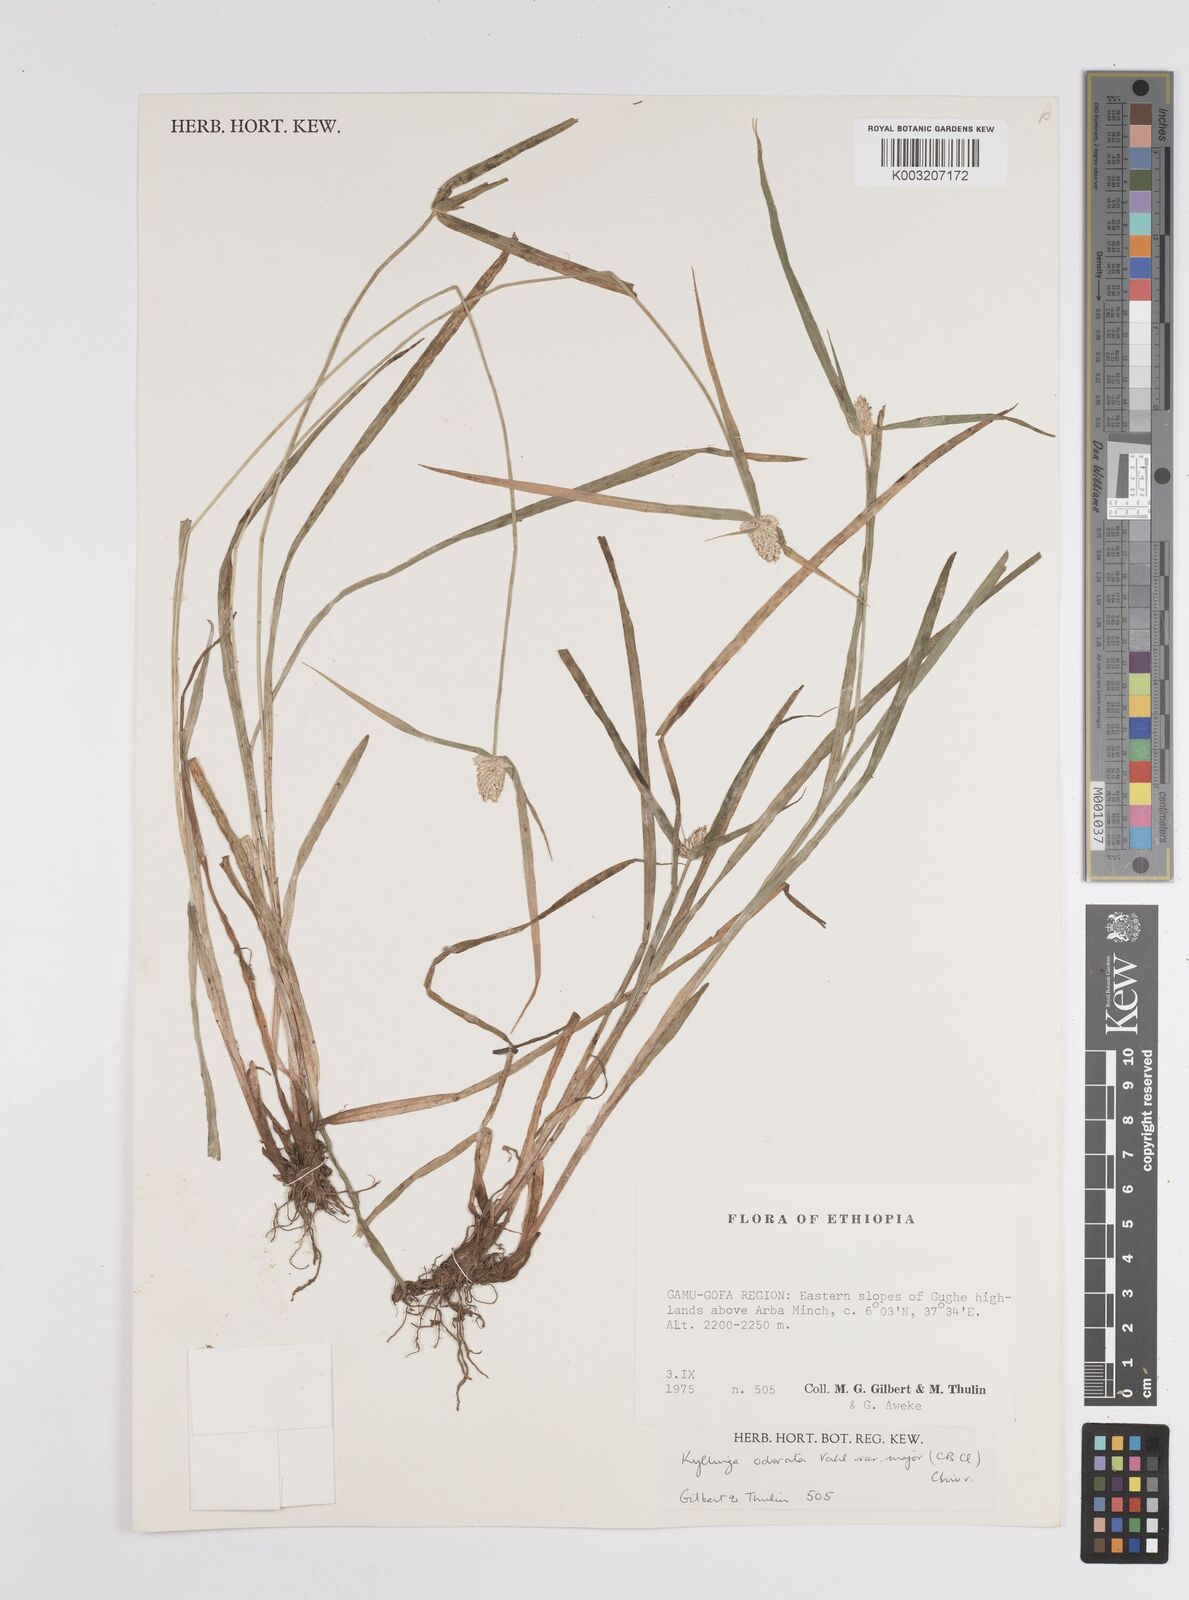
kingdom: Plantae
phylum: Tracheophyta
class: Liliopsida
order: Poales
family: Cyperaceae
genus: Cyperus
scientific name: Cyperus
